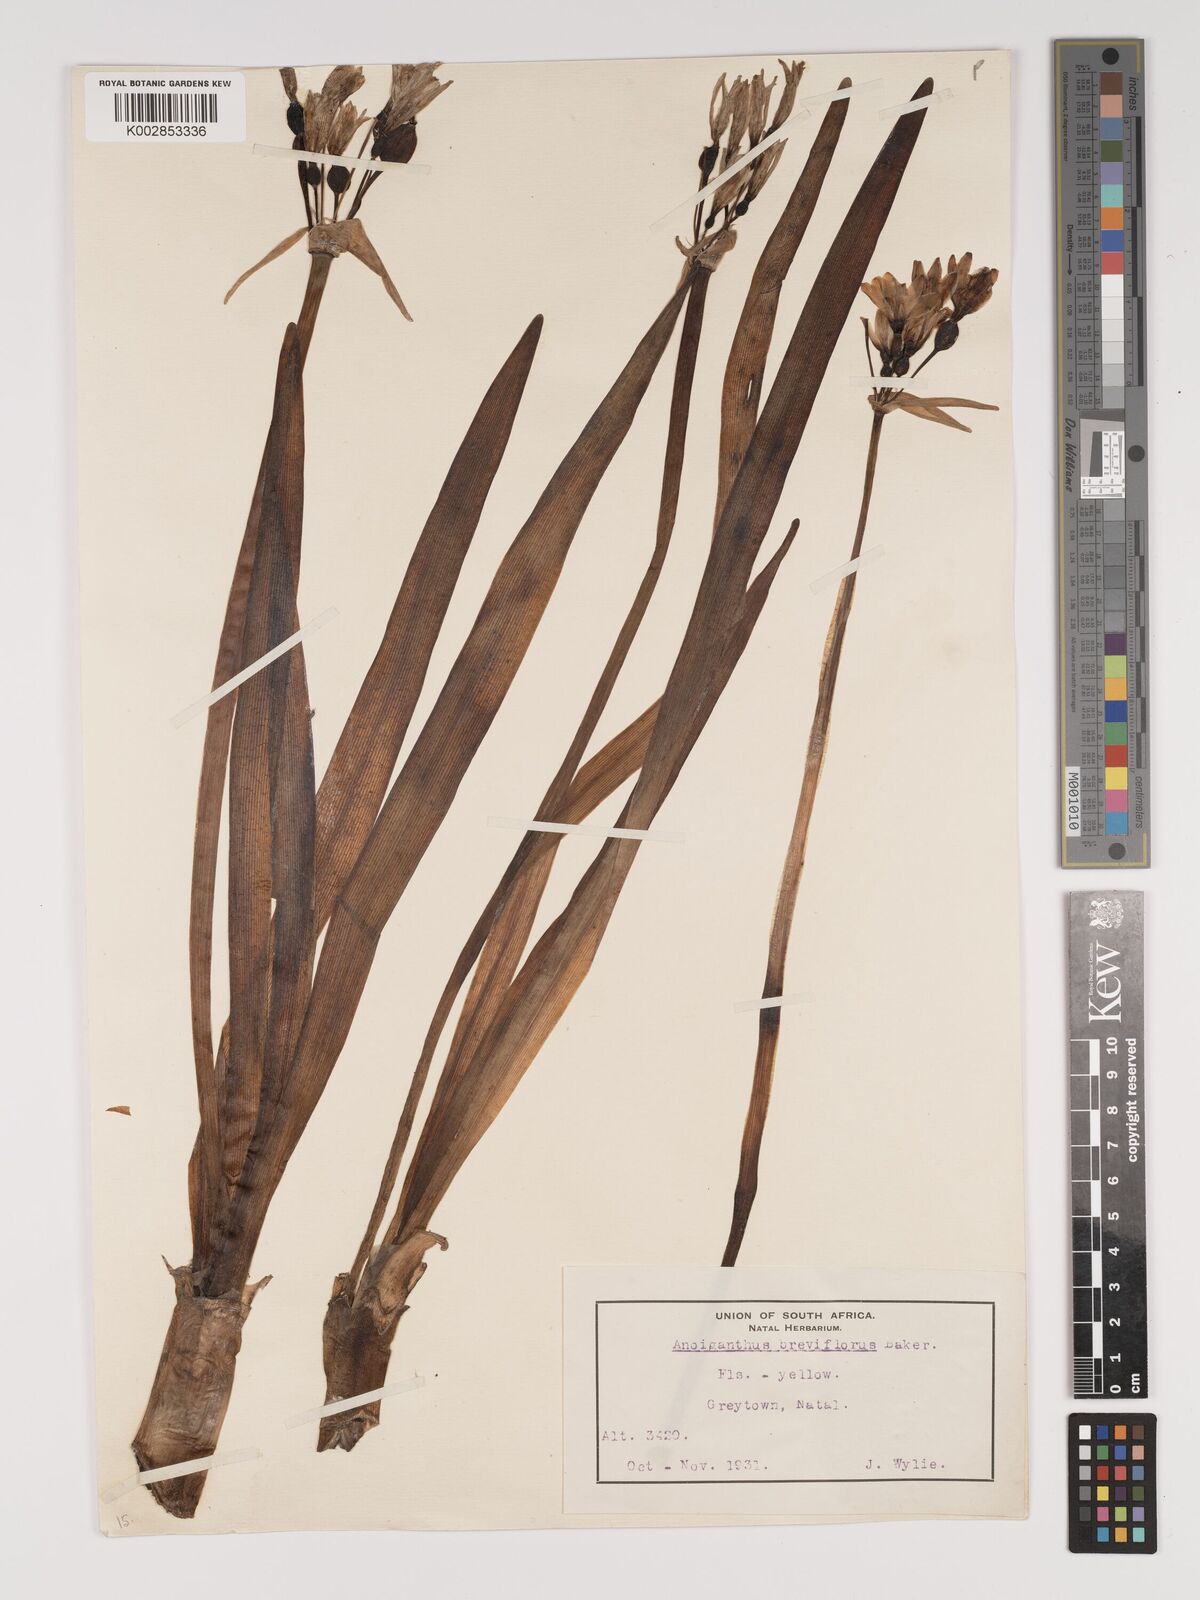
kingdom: Plantae
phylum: Tracheophyta
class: Liliopsida
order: Asparagales
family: Amaryllidaceae
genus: Cyrtanthus
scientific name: Cyrtanthus breviflorus
